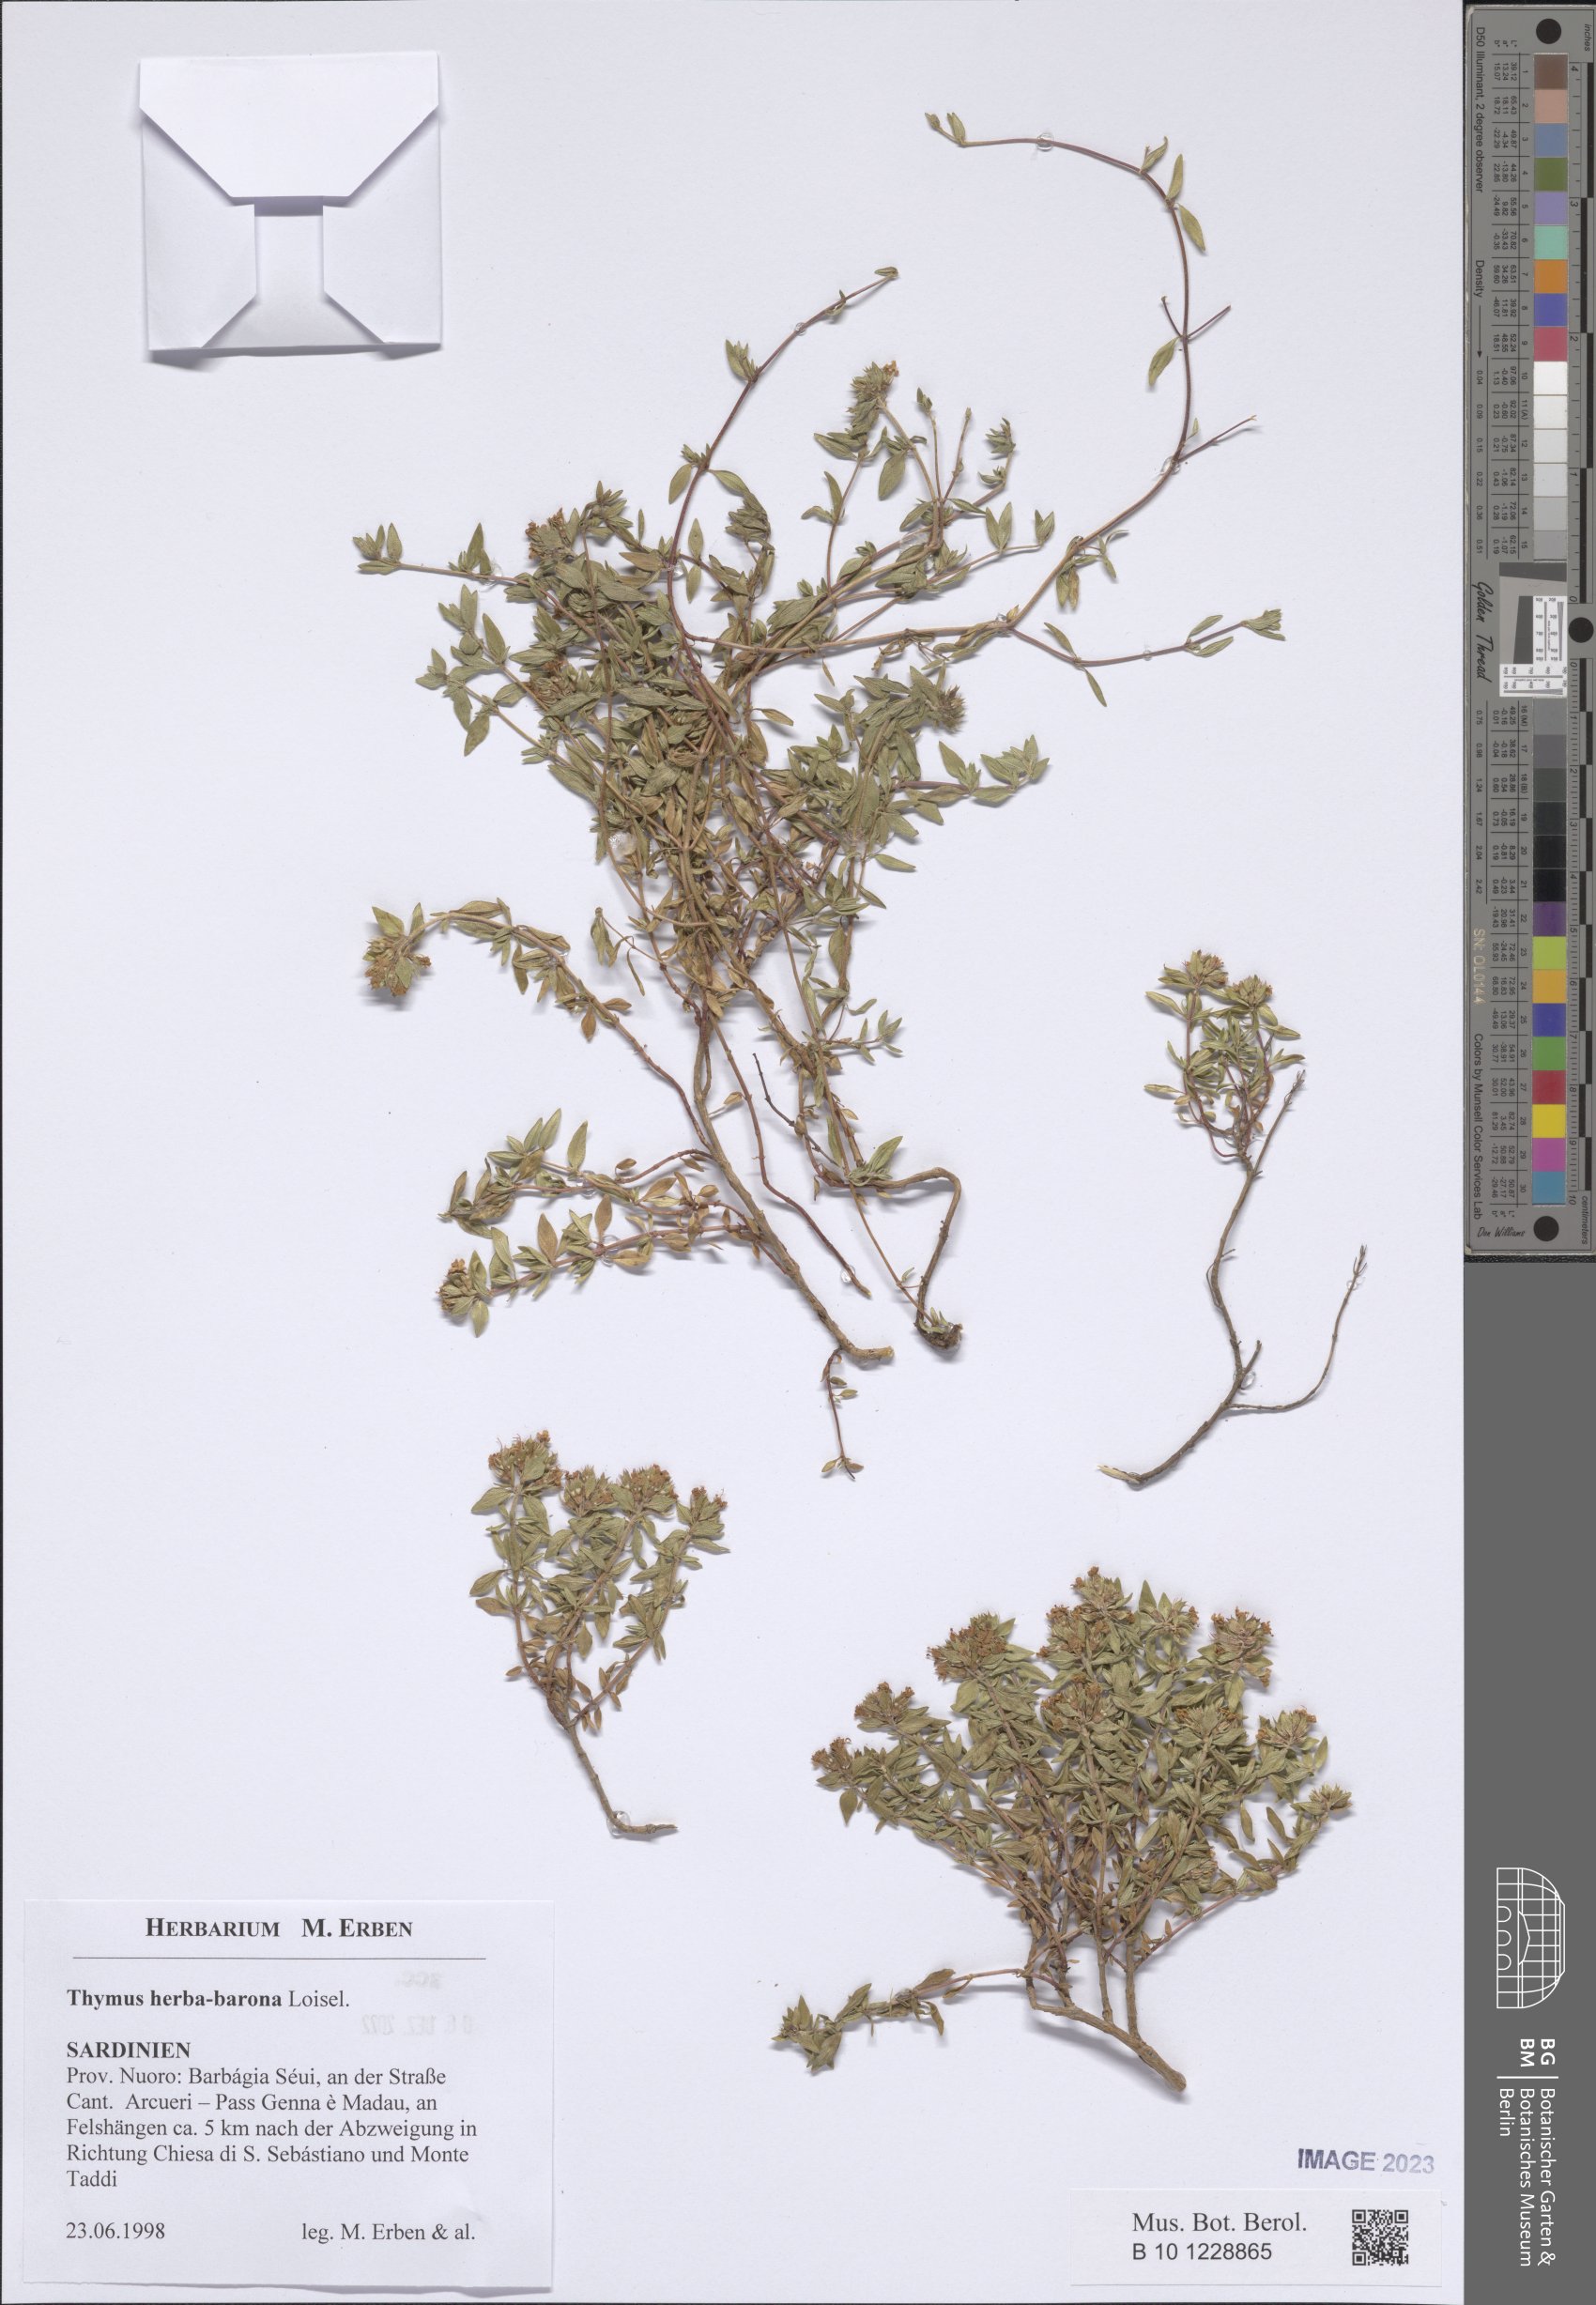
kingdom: Plantae
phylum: Tracheophyta
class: Magnoliopsida
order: Lamiales
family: Lamiaceae
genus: Thymus
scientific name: Thymus herba-barona
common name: Caraway thyme
